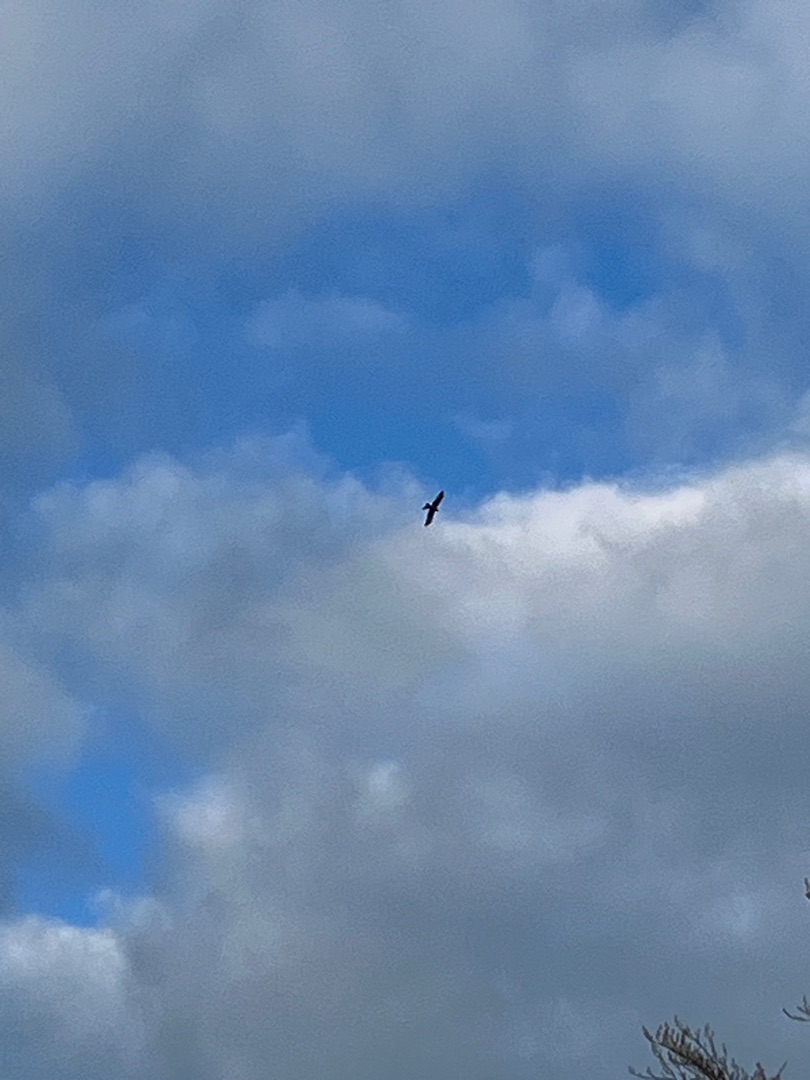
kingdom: Animalia
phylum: Chordata
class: Aves
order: Accipitriformes
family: Accipitridae
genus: Milvus
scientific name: Milvus milvus
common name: Rød glente
